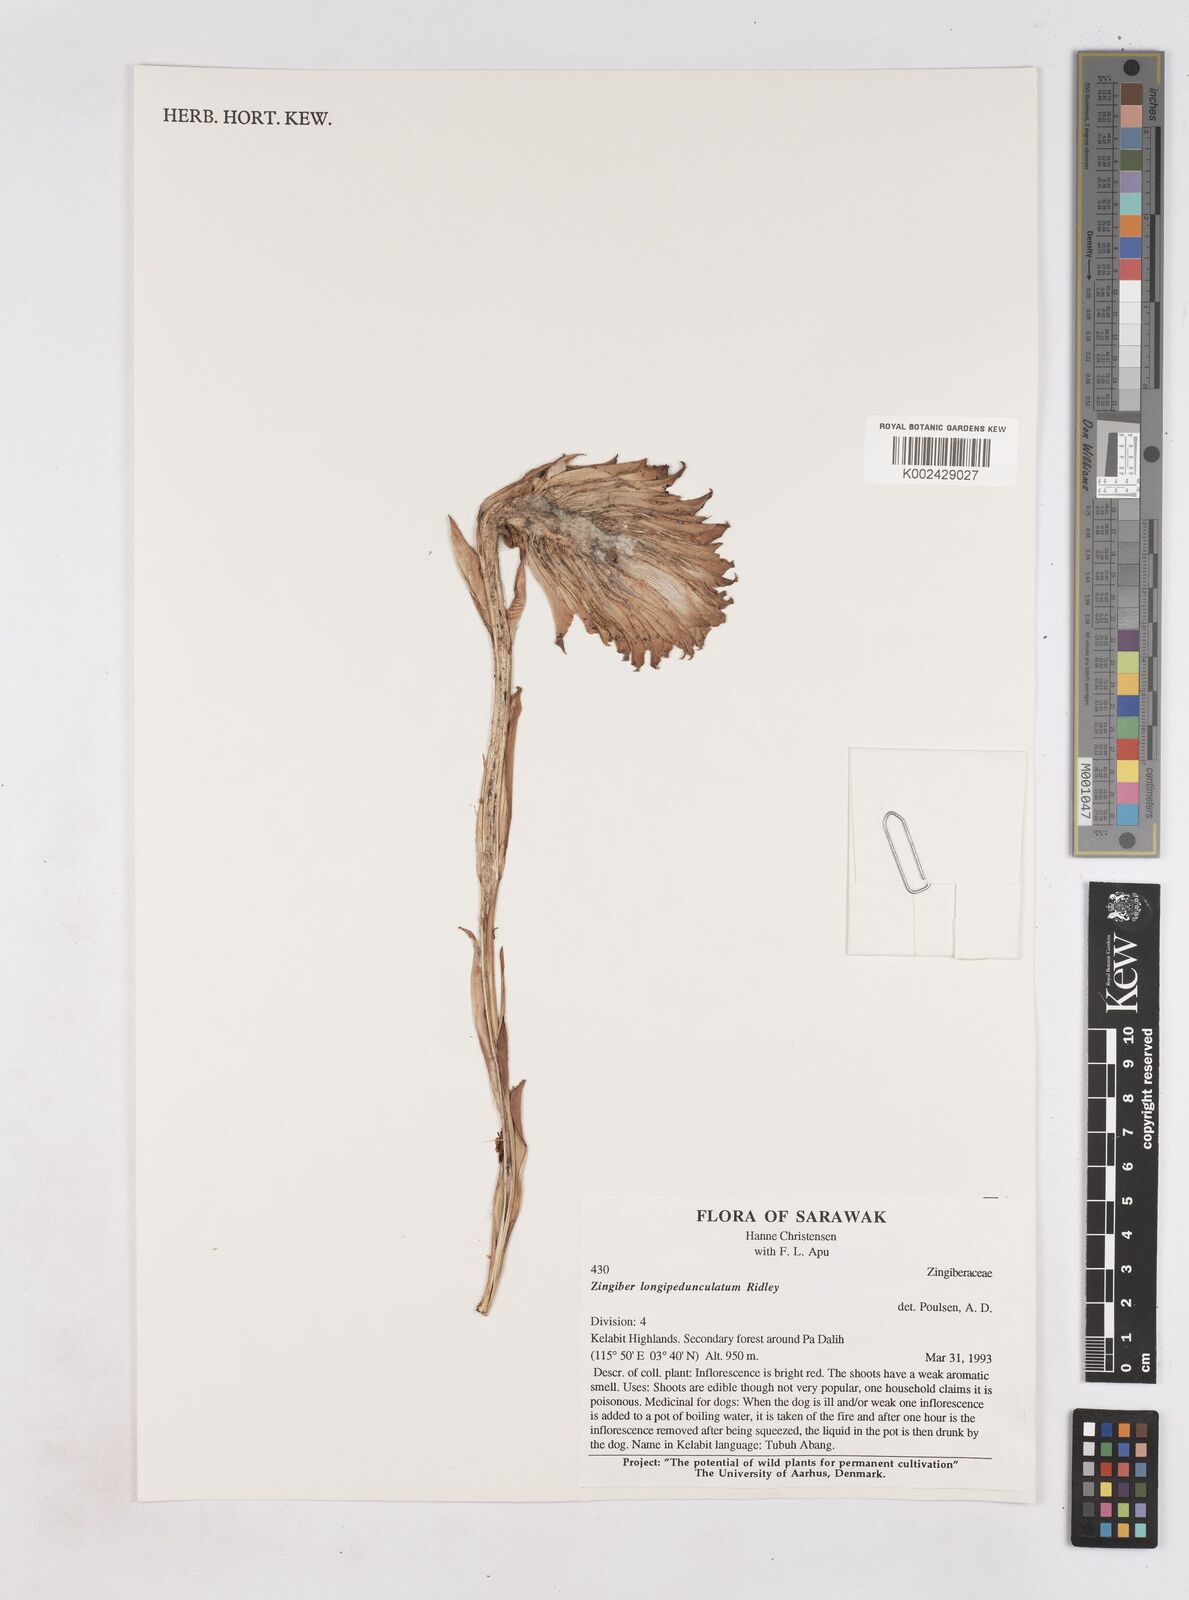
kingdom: Plantae
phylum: Tracheophyta
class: Liliopsida
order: Zingiberales
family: Zingiberaceae
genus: Zingiber
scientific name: Zingiber longipedunculatum
